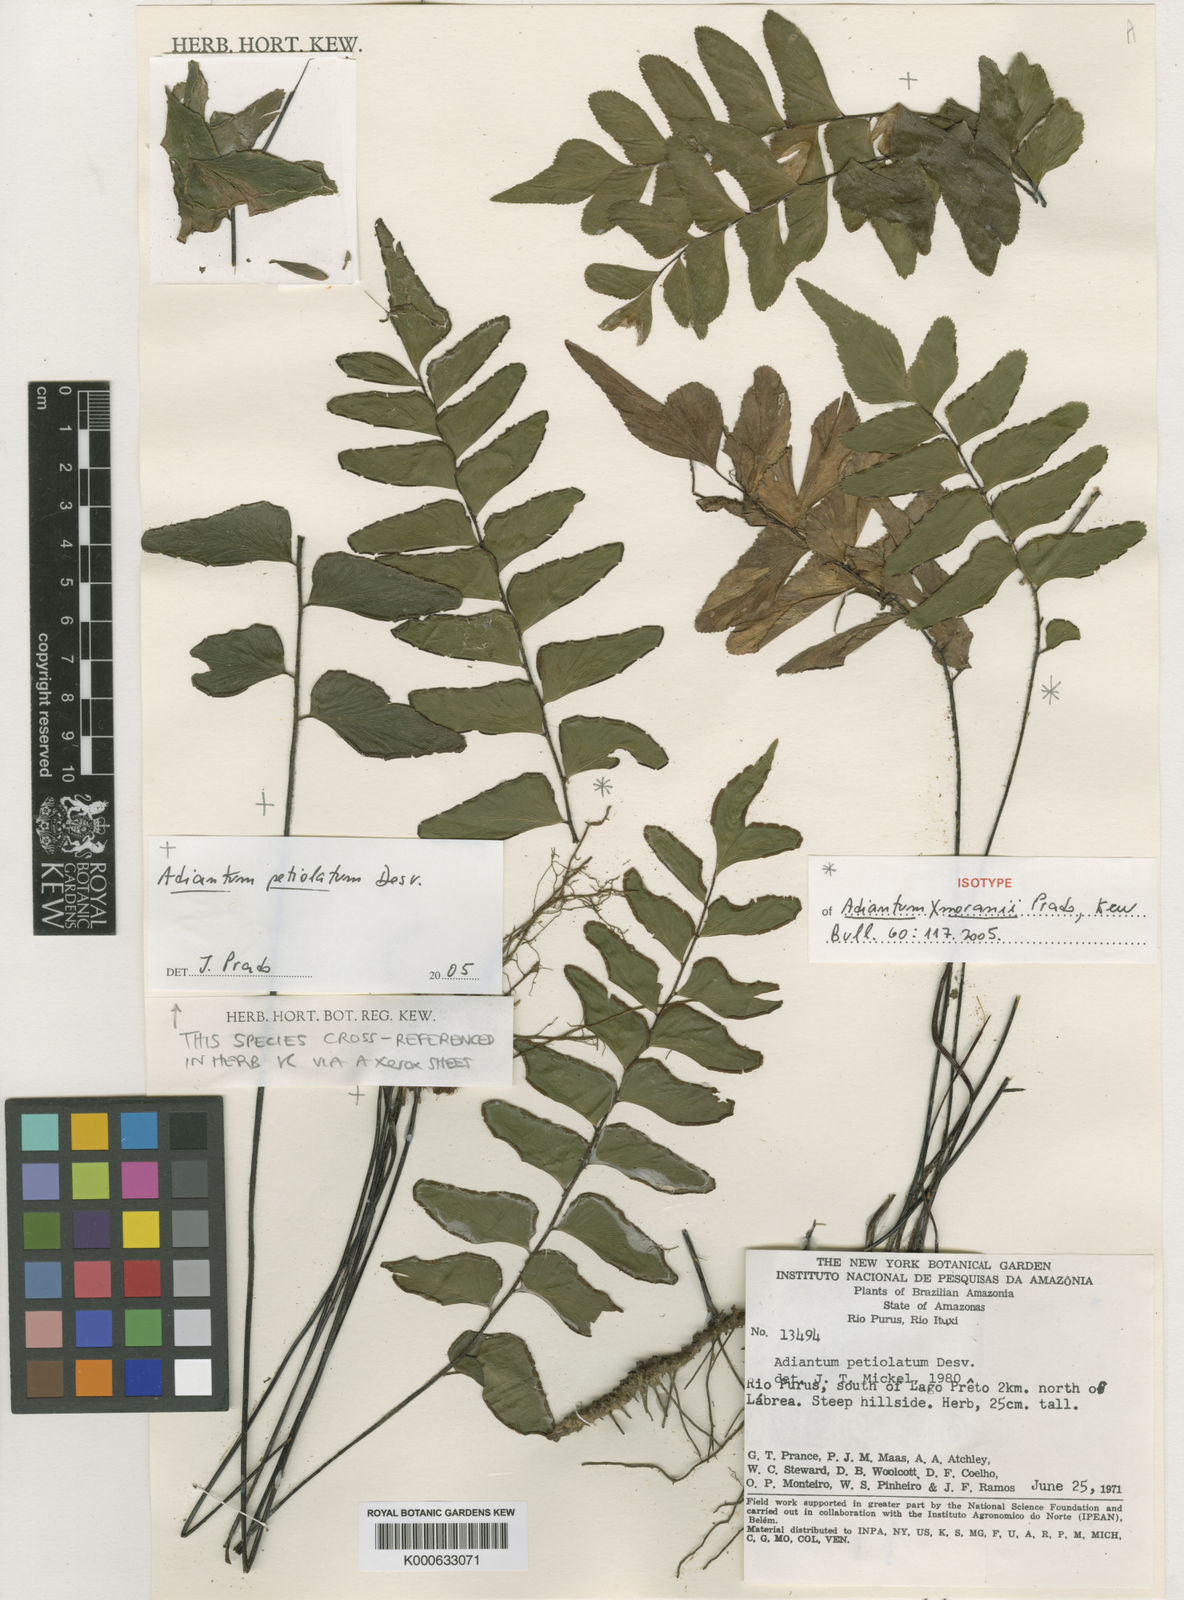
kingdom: Plantae
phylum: Tracheophyta
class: Polypodiopsida
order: Polypodiales
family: Pteridaceae
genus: Adiantum
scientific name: Adiantum moranii
